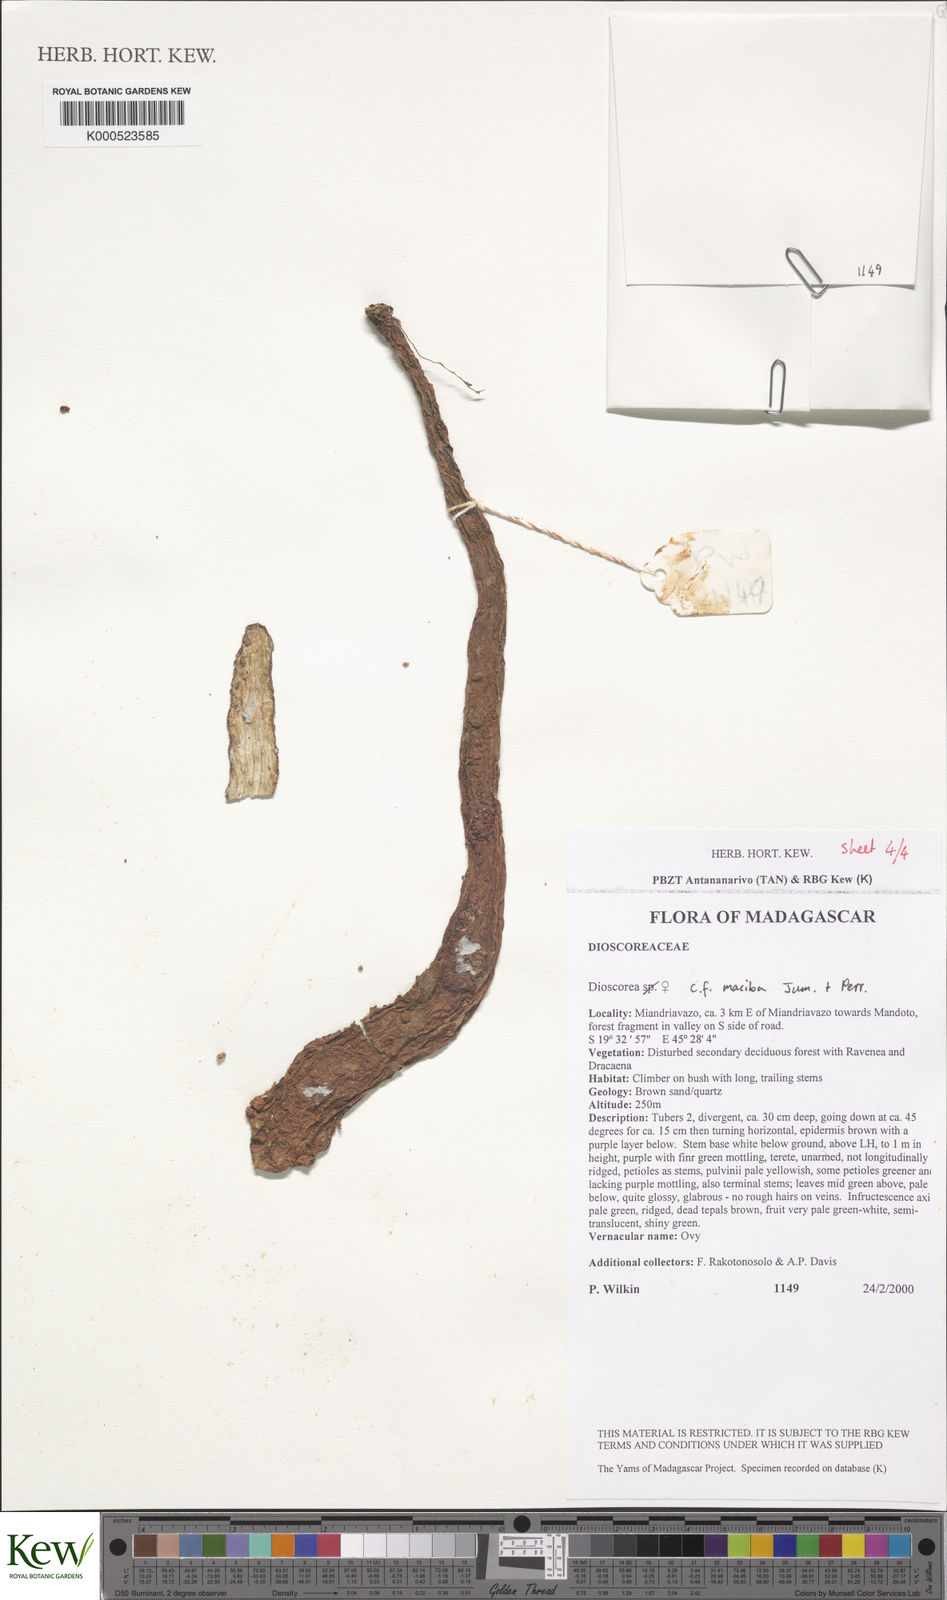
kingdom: Plantae
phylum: Tracheophyta
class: Liliopsida
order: Dioscoreales
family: Dioscoreaceae
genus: Dioscorea
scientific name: Dioscorea maciba
